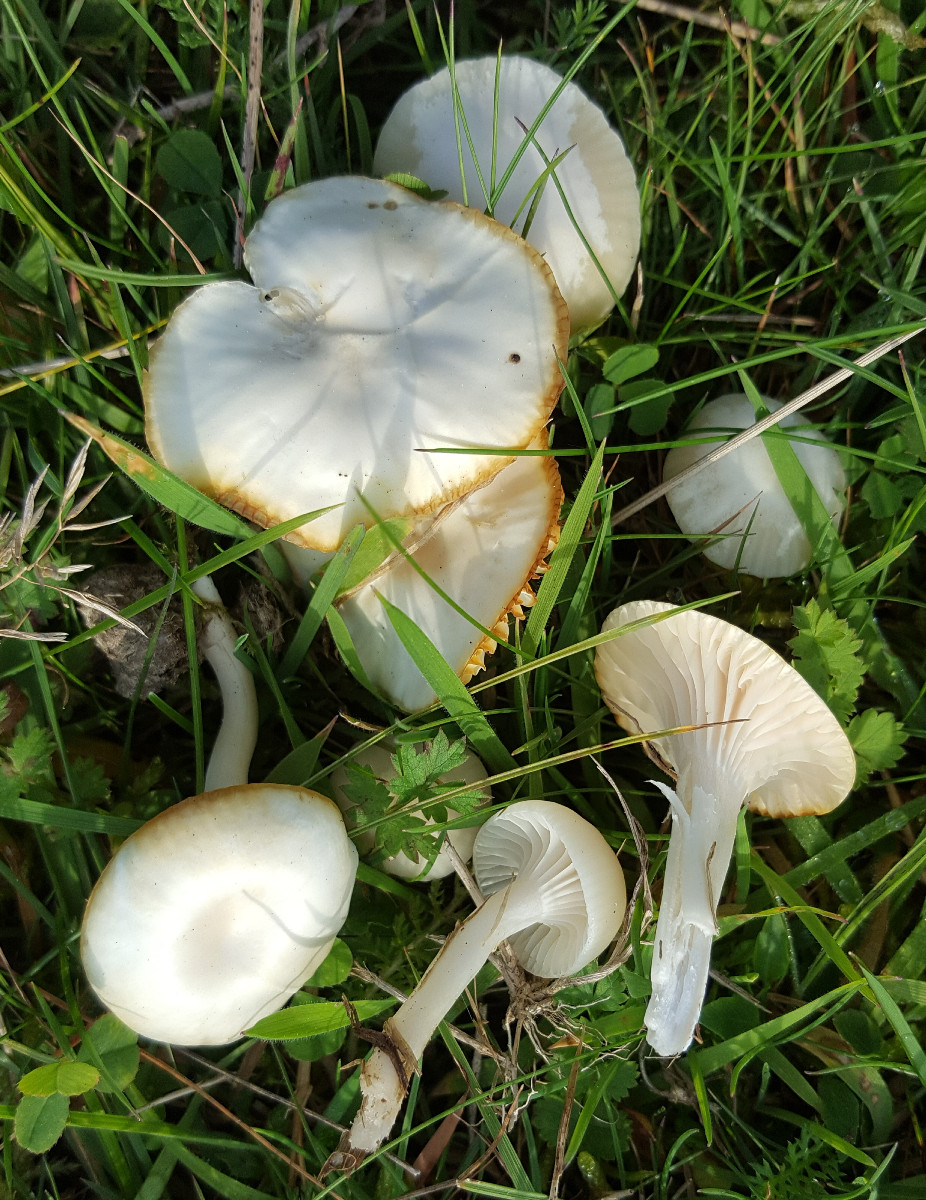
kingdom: Fungi
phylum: Basidiomycota
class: Agaricomycetes
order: Agaricales
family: Hygrophoraceae
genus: Cuphophyllus
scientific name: Cuphophyllus virgineus
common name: snehvid vokshat
